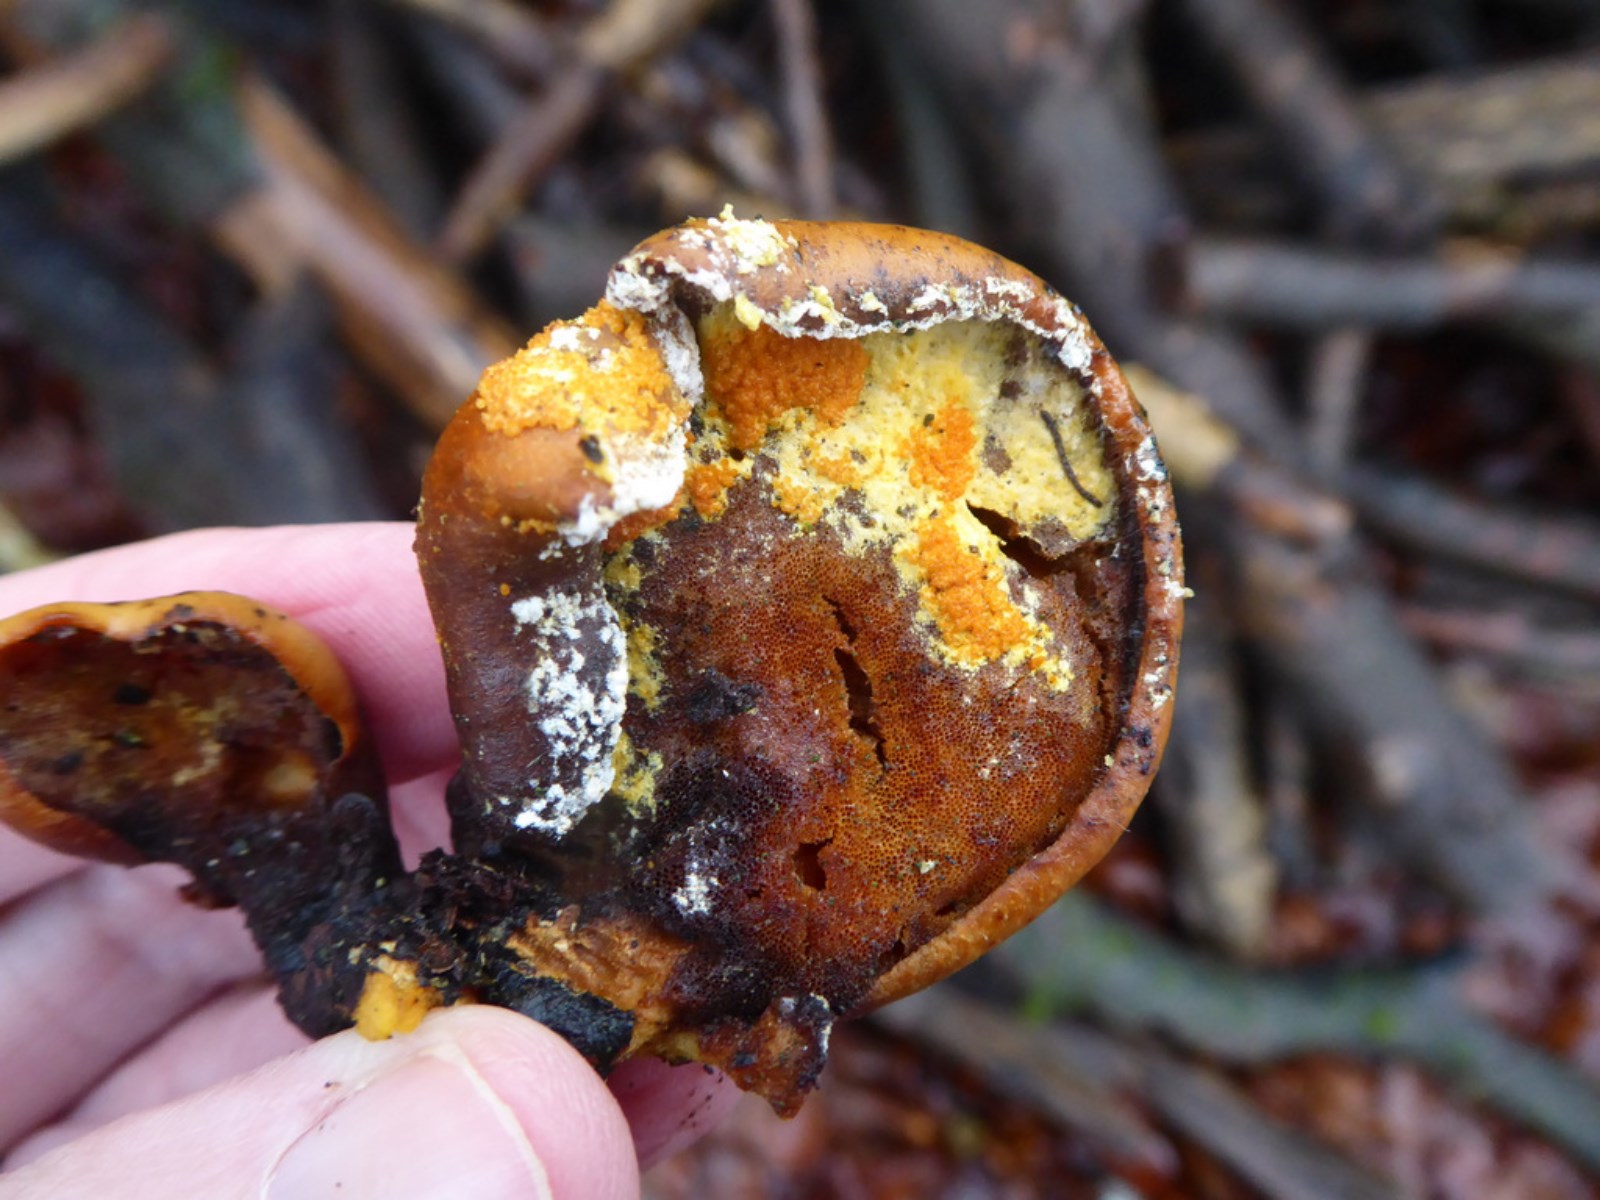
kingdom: Fungi
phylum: Ascomycota
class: Sordariomycetes
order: Hypocreales
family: Hypocreaceae
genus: Hypomyces
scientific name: Hypomyces aurantius
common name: almindelig snylteskorpe
